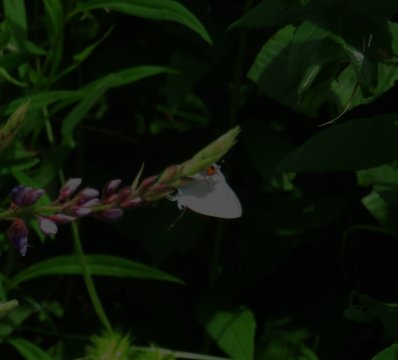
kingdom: Animalia
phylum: Arthropoda
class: Insecta
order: Lepidoptera
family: Lycaenidae
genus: Strymon
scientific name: Strymon melinus
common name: Gray Hairstreak
